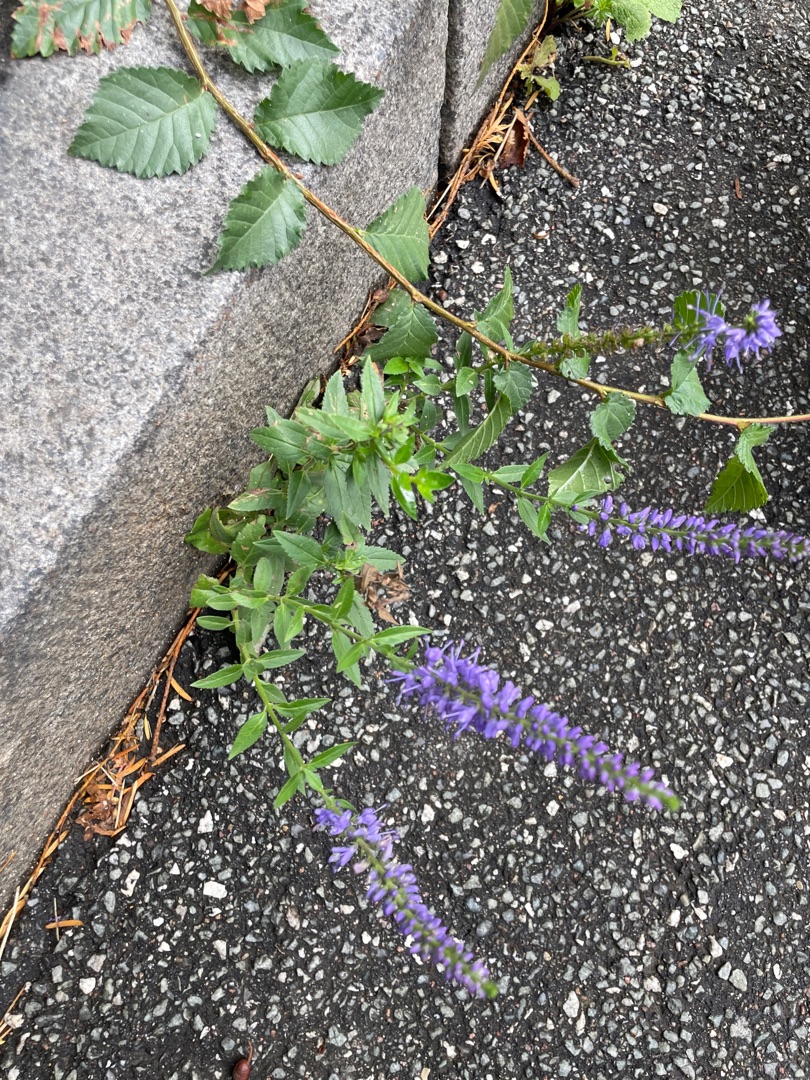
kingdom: Plantae
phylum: Tracheophyta
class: Magnoliopsida
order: Lamiales
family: Plantaginaceae
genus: Veronica
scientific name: Veronica
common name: Ærenprisslægten
